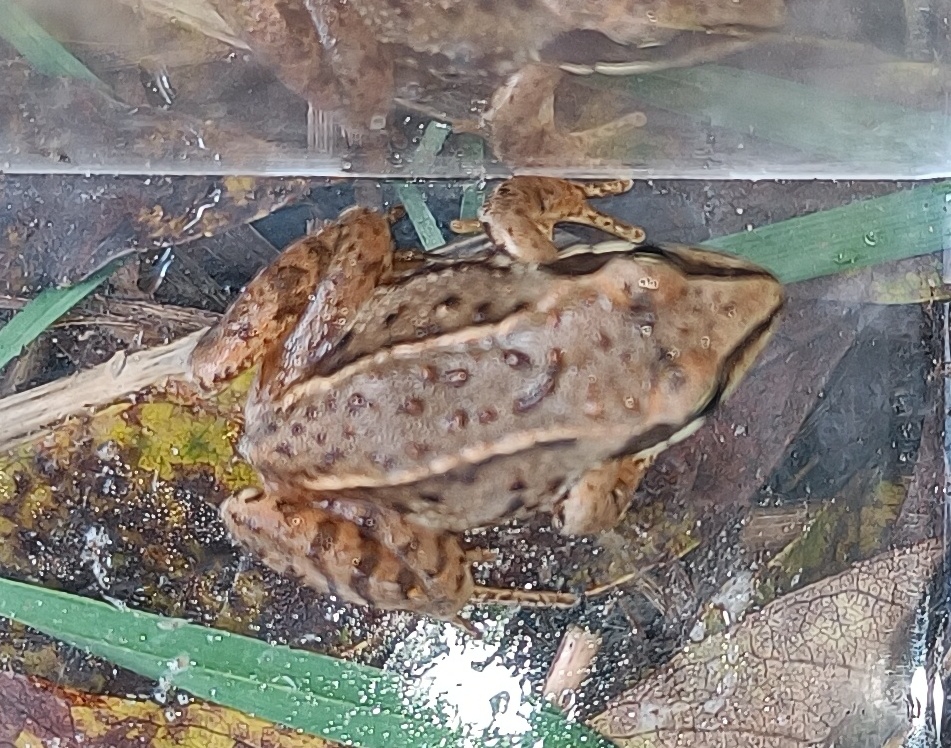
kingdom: Animalia
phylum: Chordata
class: Amphibia
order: Anura
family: Ranidae
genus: Rana
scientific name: Rana arvalis
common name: Spidssnudet frø
